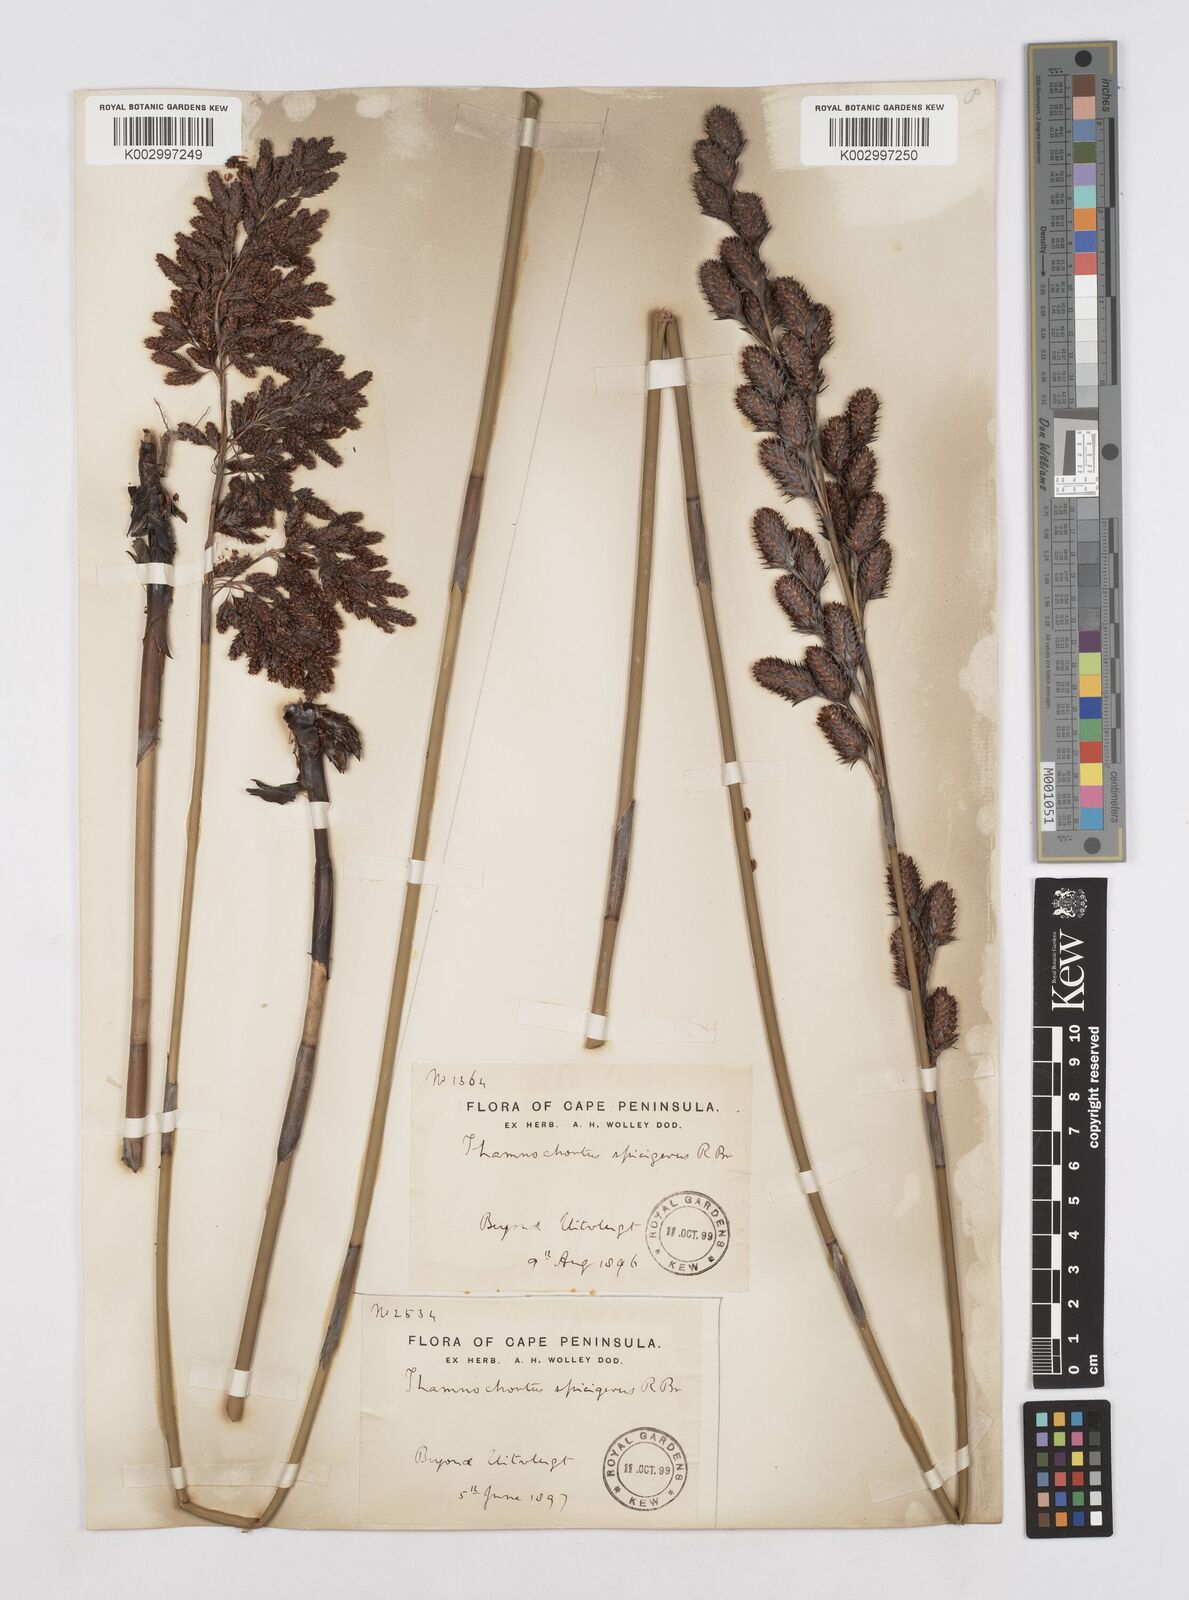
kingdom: Plantae
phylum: Tracheophyta
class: Liliopsida
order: Poales
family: Restionaceae
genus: Thamnochortus
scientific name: Thamnochortus spicigerus
